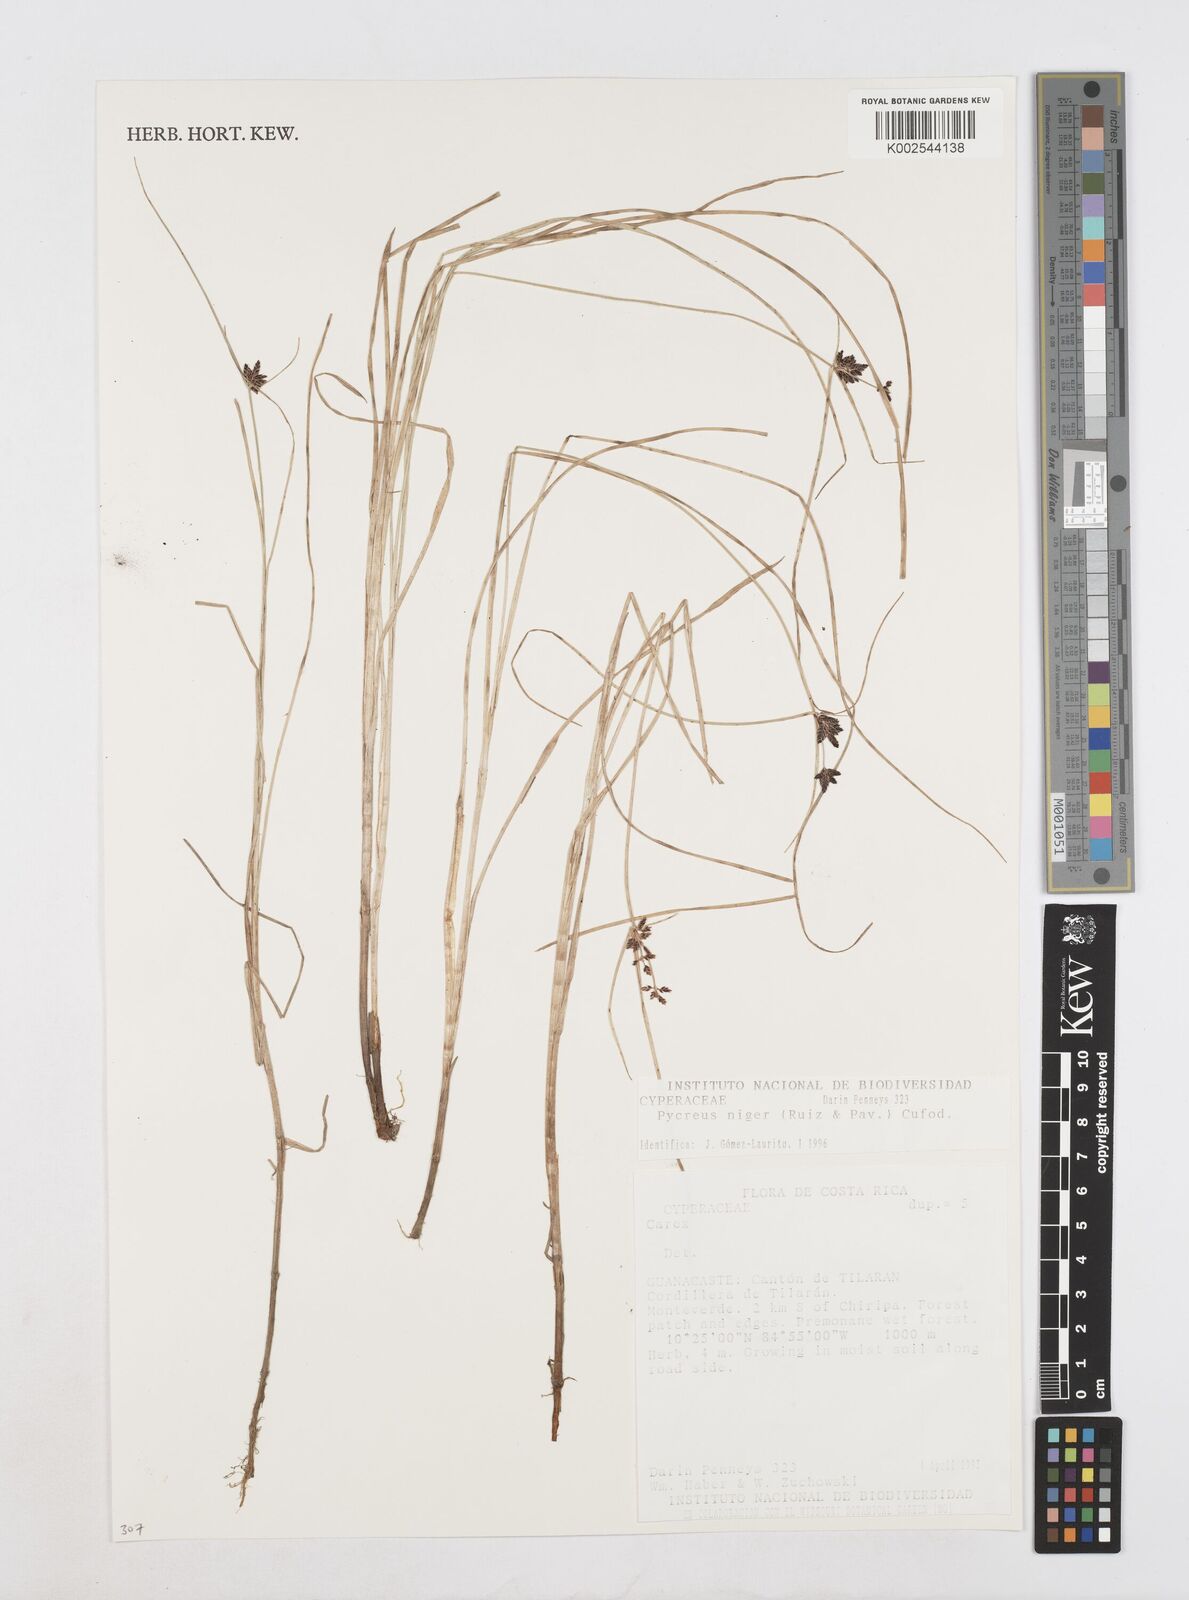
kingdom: Plantae
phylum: Tracheophyta
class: Liliopsida
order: Poales
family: Cyperaceae
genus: Cyperus
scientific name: Cyperus melanostachyus
